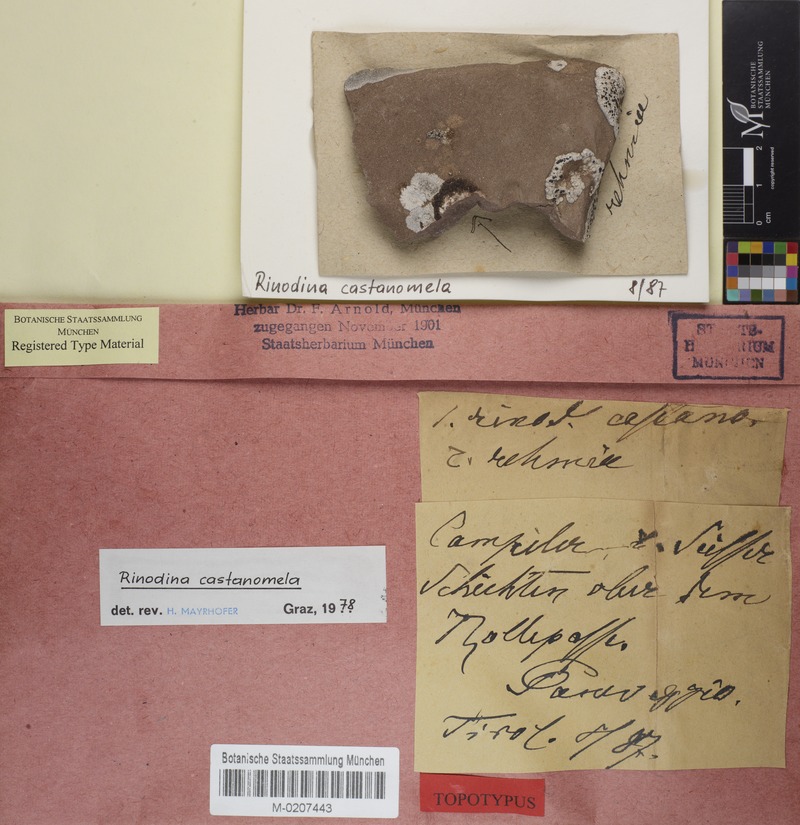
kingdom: Fungi
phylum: Ascomycota
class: Lecanoromycetes
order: Caliciales
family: Physciaceae
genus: Rinodina
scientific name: Rinodina castanomela
